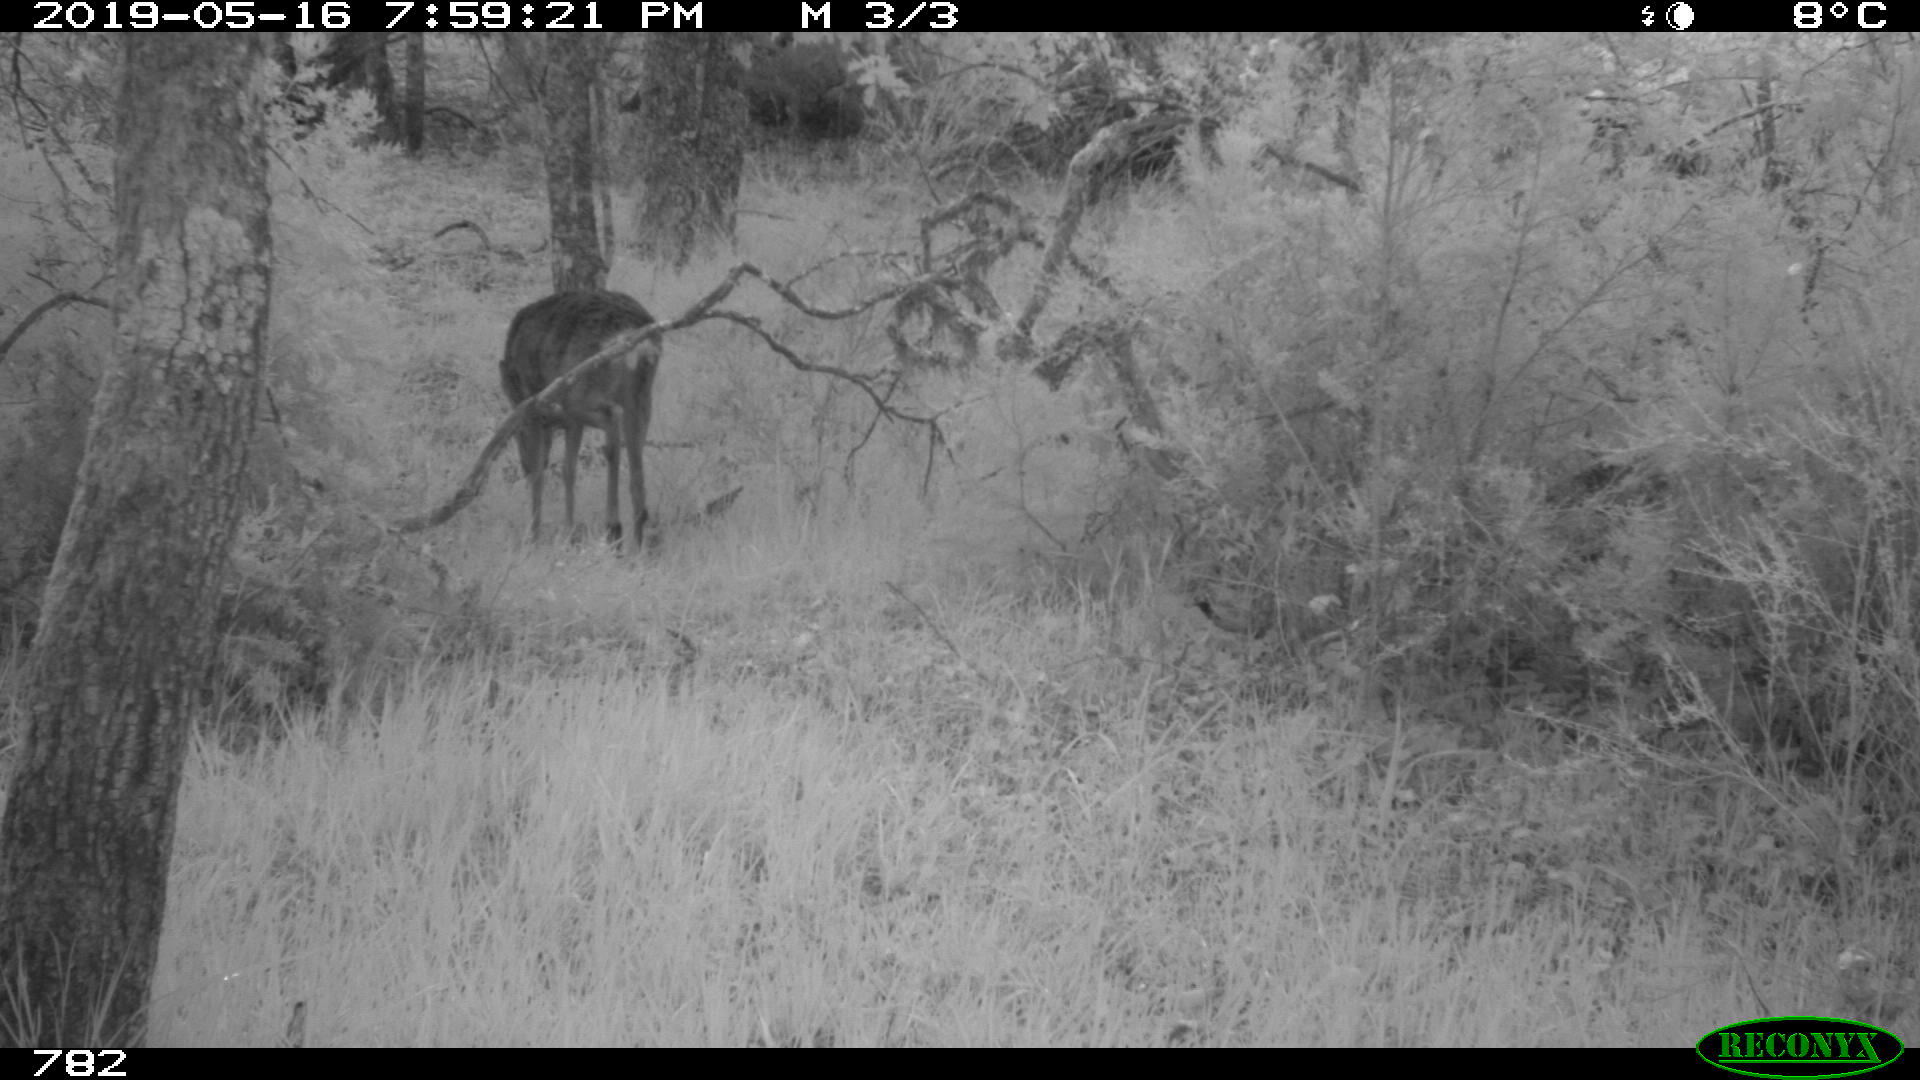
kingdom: Animalia
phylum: Chordata
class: Mammalia
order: Artiodactyla
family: Cervidae
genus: Capreolus
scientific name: Capreolus capreolus
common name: Western roe deer
